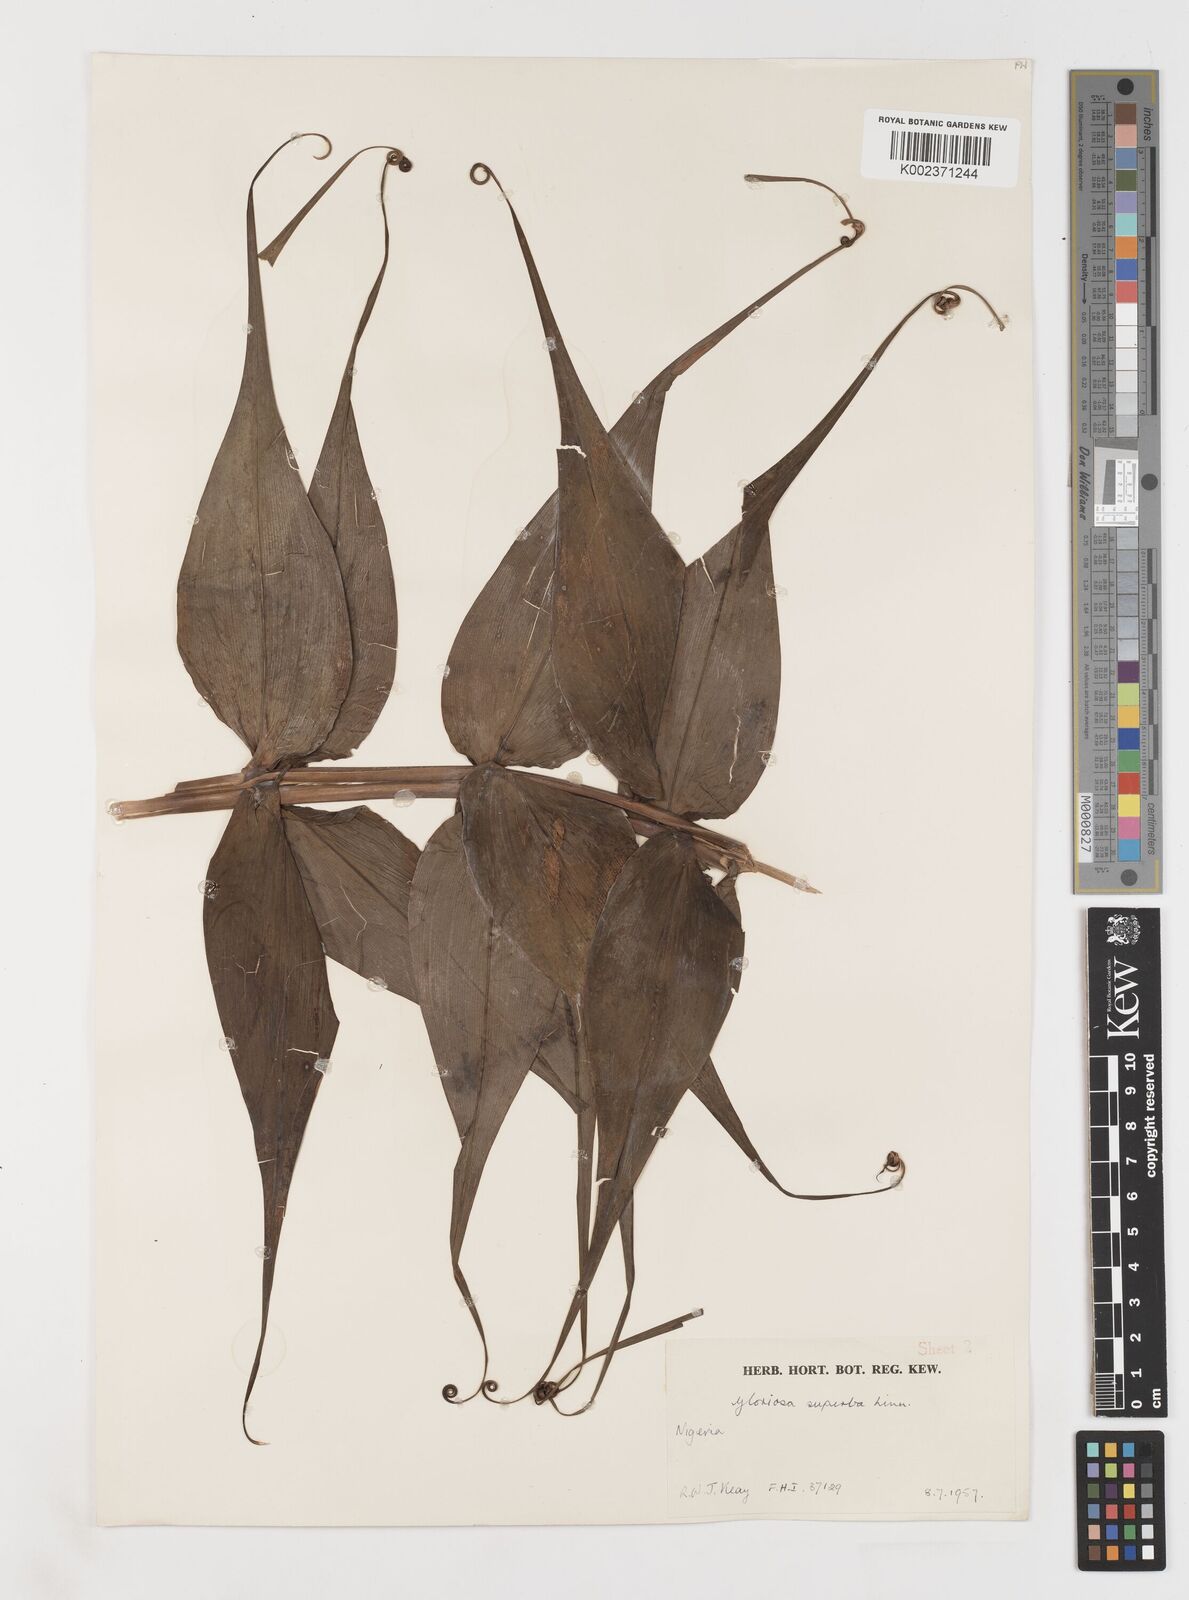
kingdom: Plantae
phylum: Tracheophyta
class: Liliopsida
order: Liliales
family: Colchicaceae
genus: Gloriosa
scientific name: Gloriosa superba
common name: Flame lily
